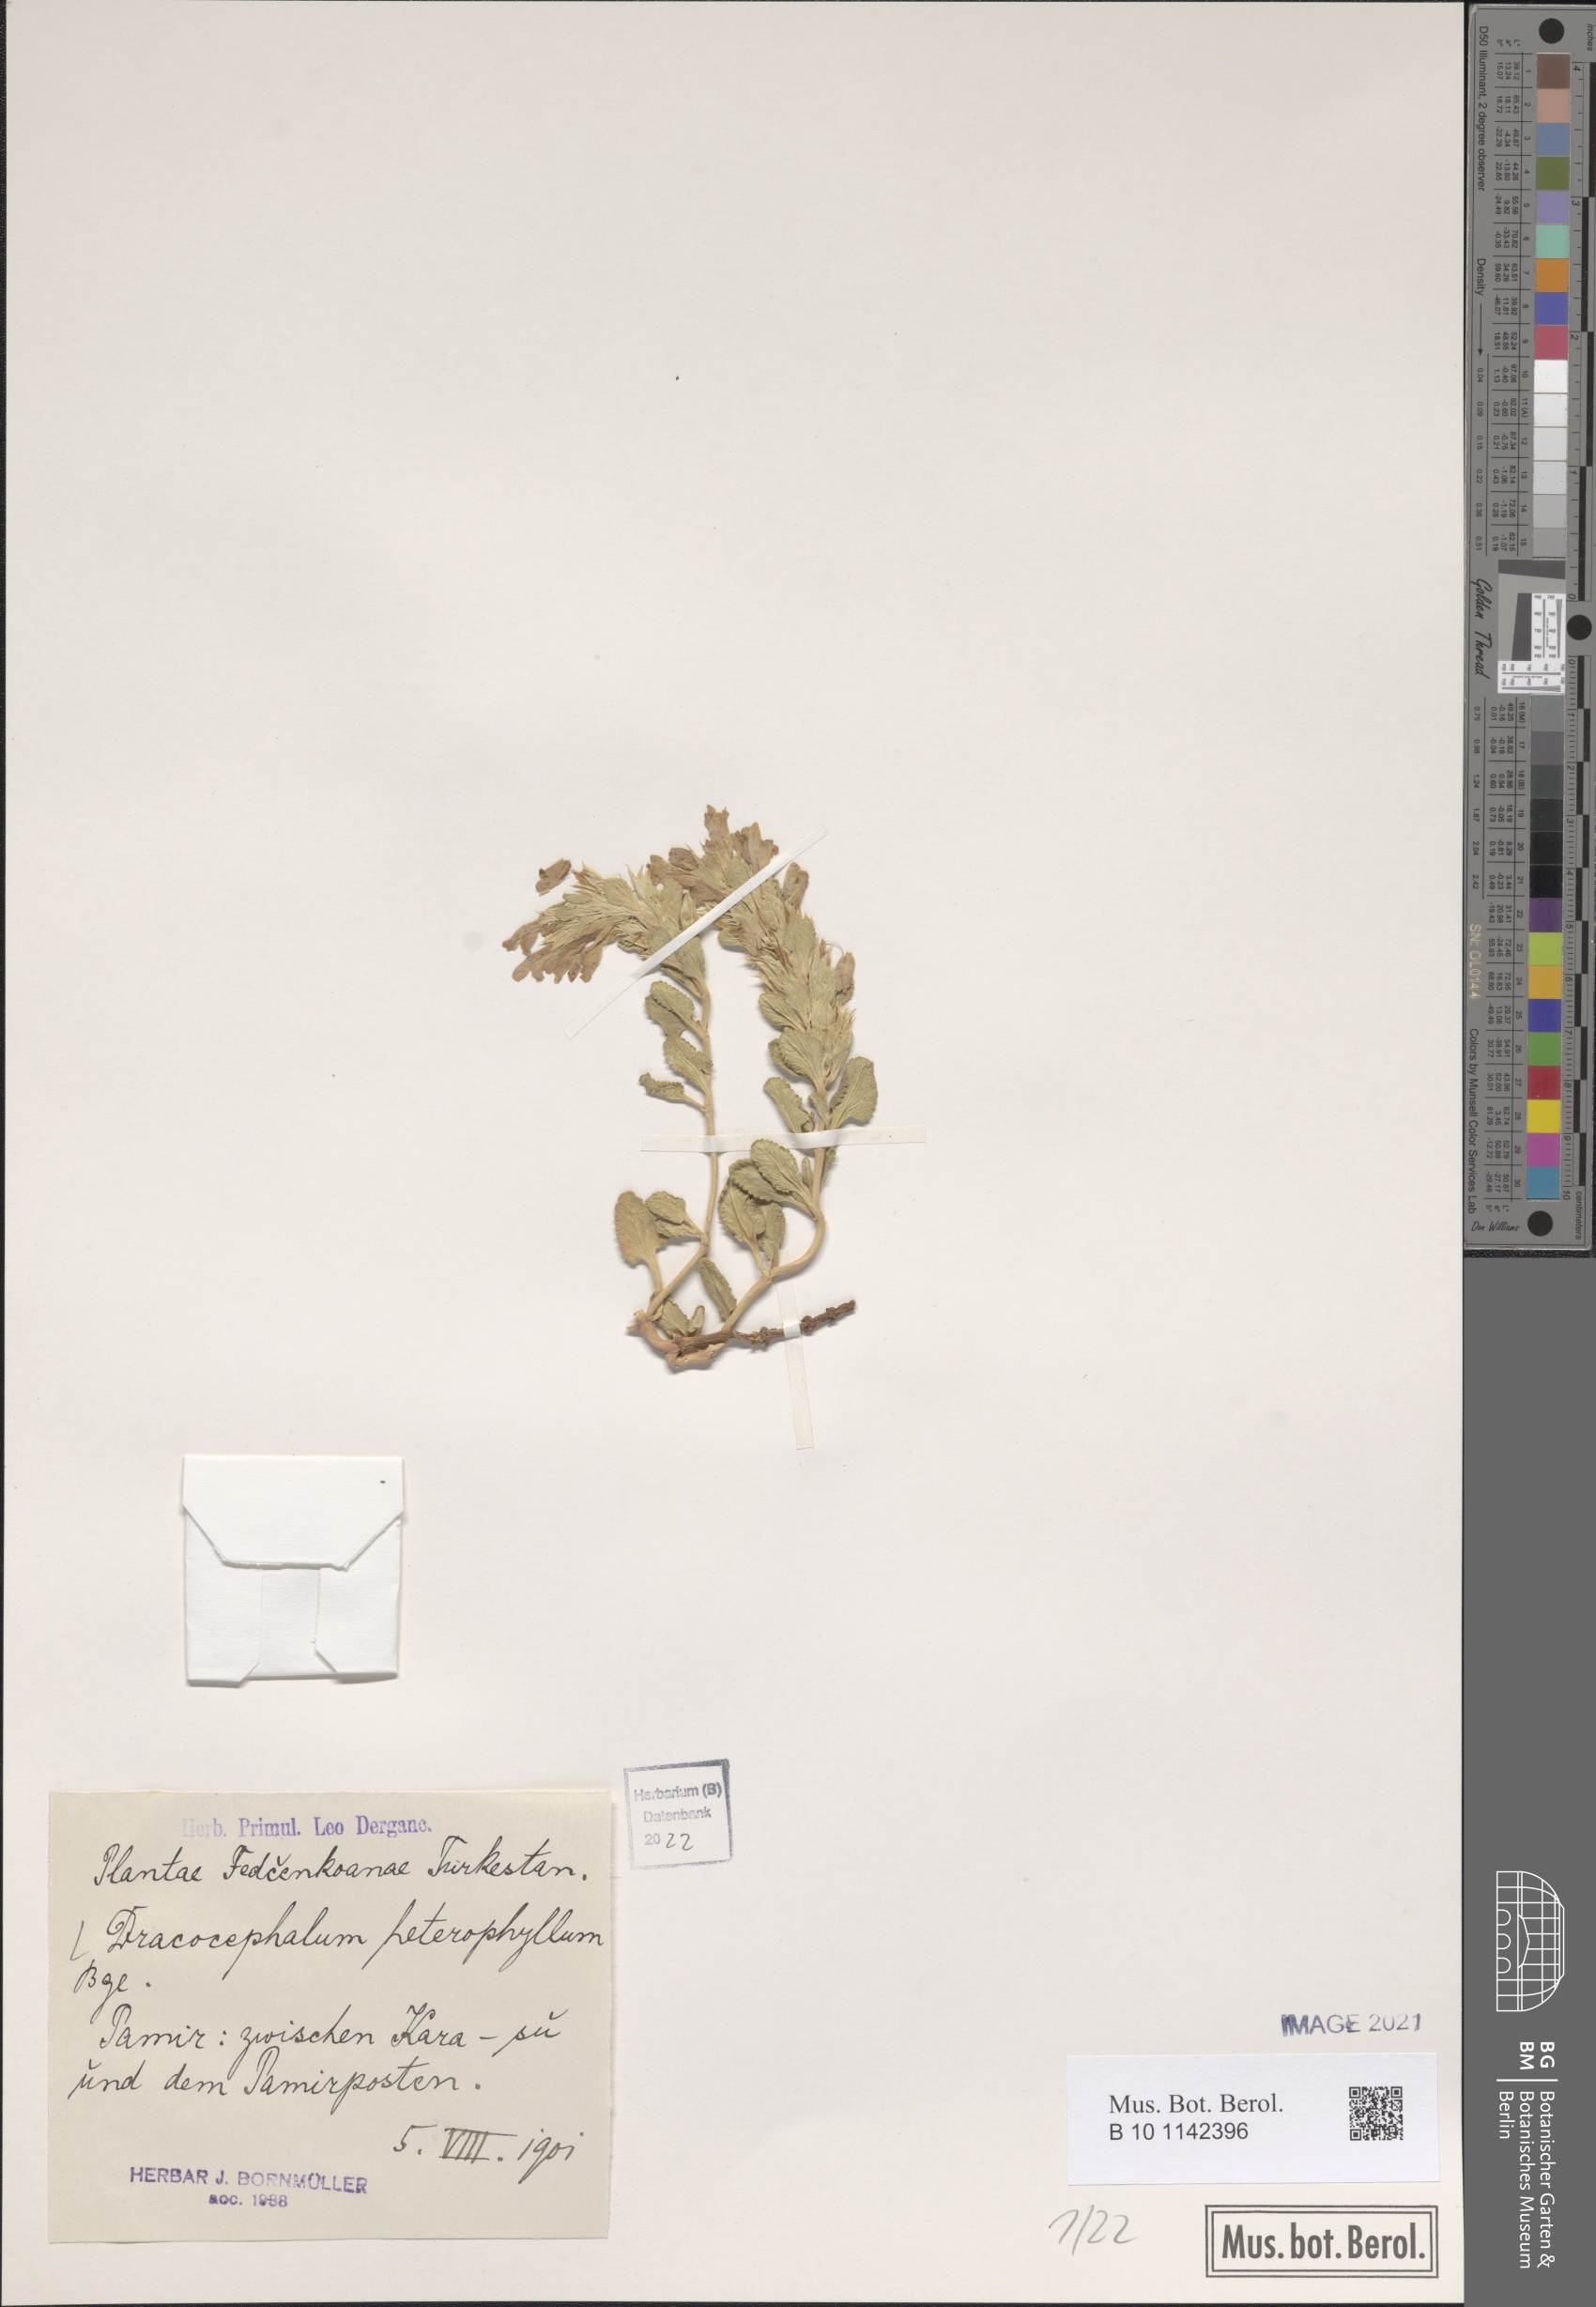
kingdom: Plantae
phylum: Tracheophyta
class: Magnoliopsida
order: Lamiales
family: Lamiaceae
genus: Dracocephalum
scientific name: Dracocephalum heterophyllum
